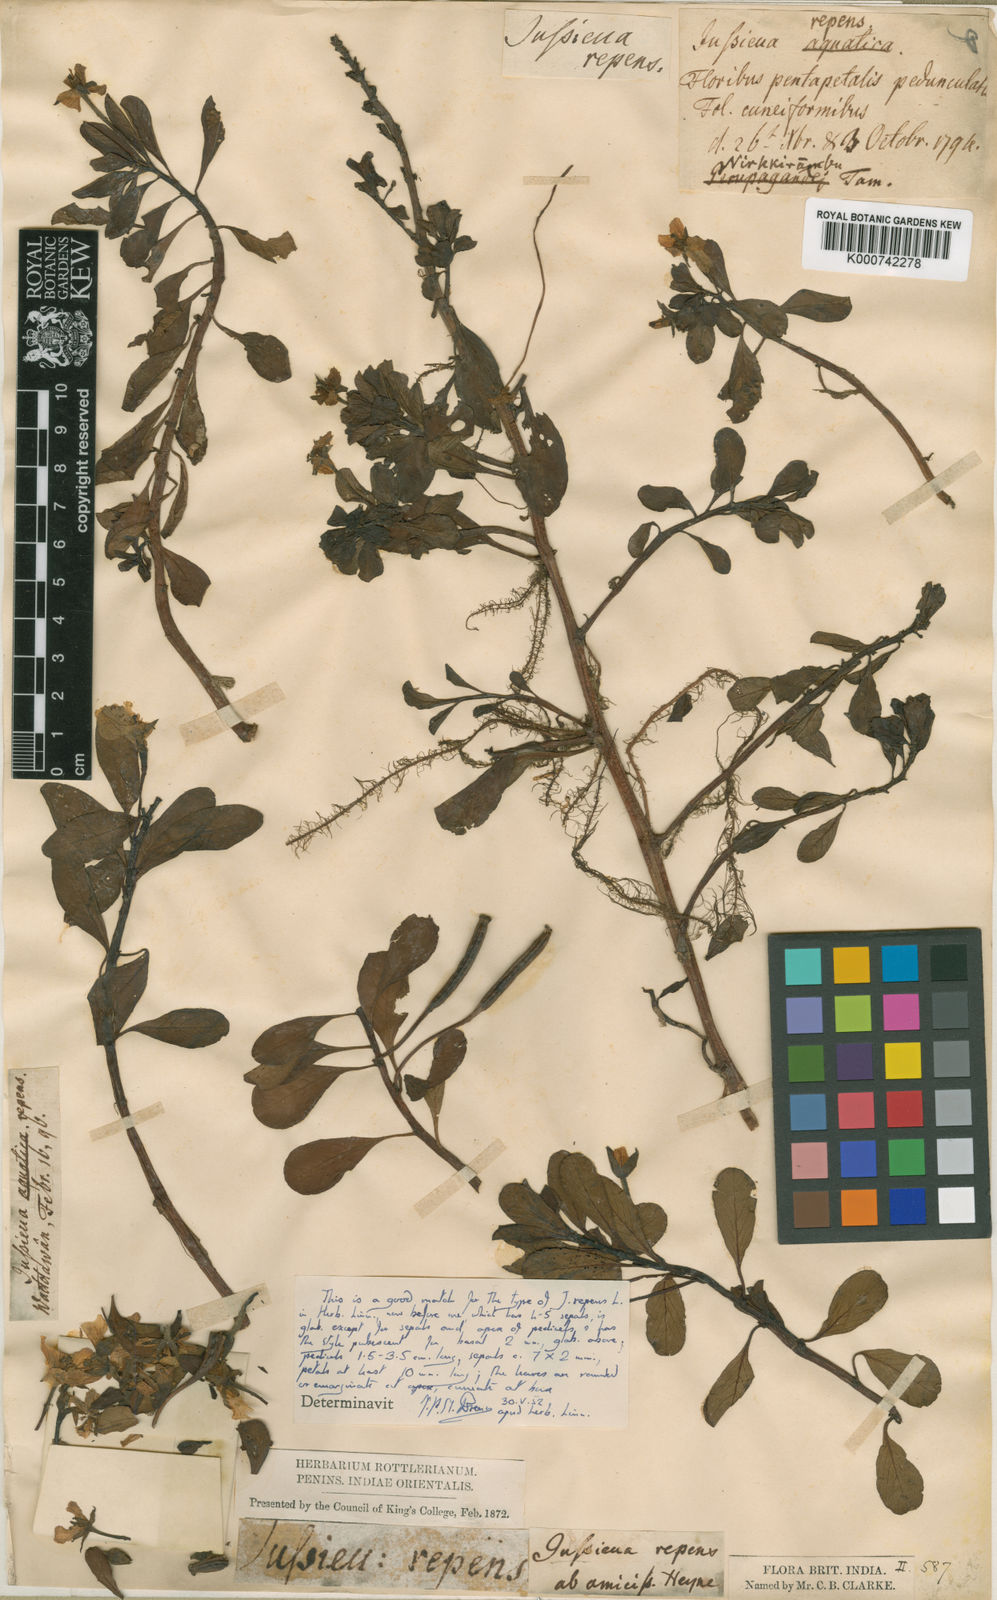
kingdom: Plantae
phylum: Tracheophyta
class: Magnoliopsida
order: Myrtales
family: Onagraceae
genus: Ludwigia
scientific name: Ludwigia adscendens
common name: Creeping water primrose
